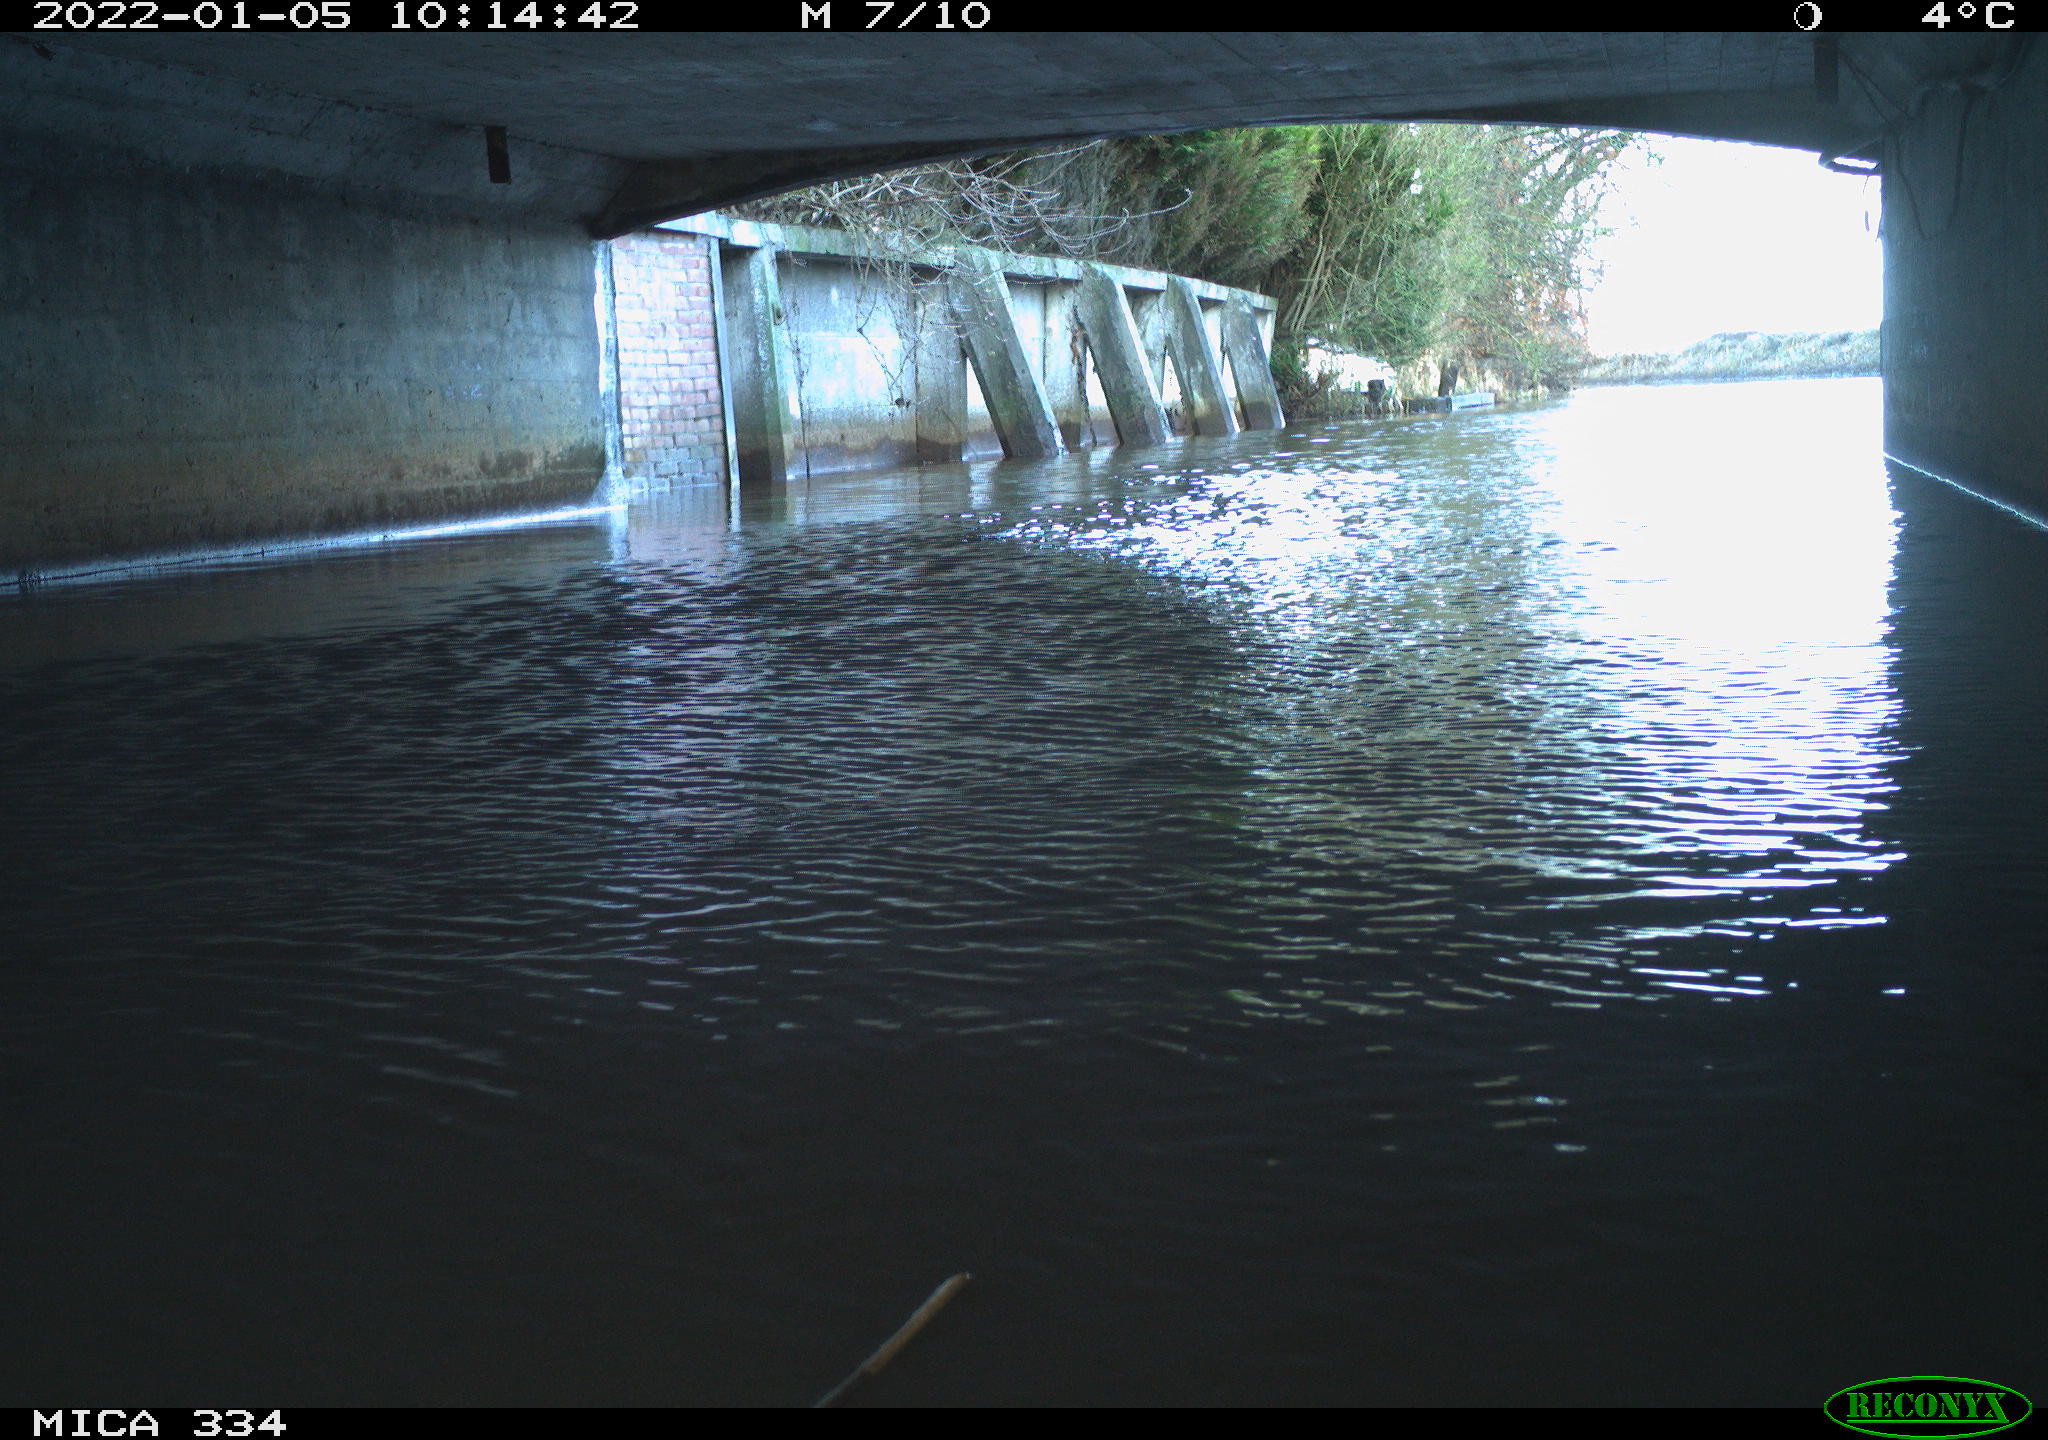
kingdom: Animalia
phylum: Chordata
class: Aves
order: Gruiformes
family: Rallidae
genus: Gallinula
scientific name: Gallinula chloropus
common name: Common moorhen
